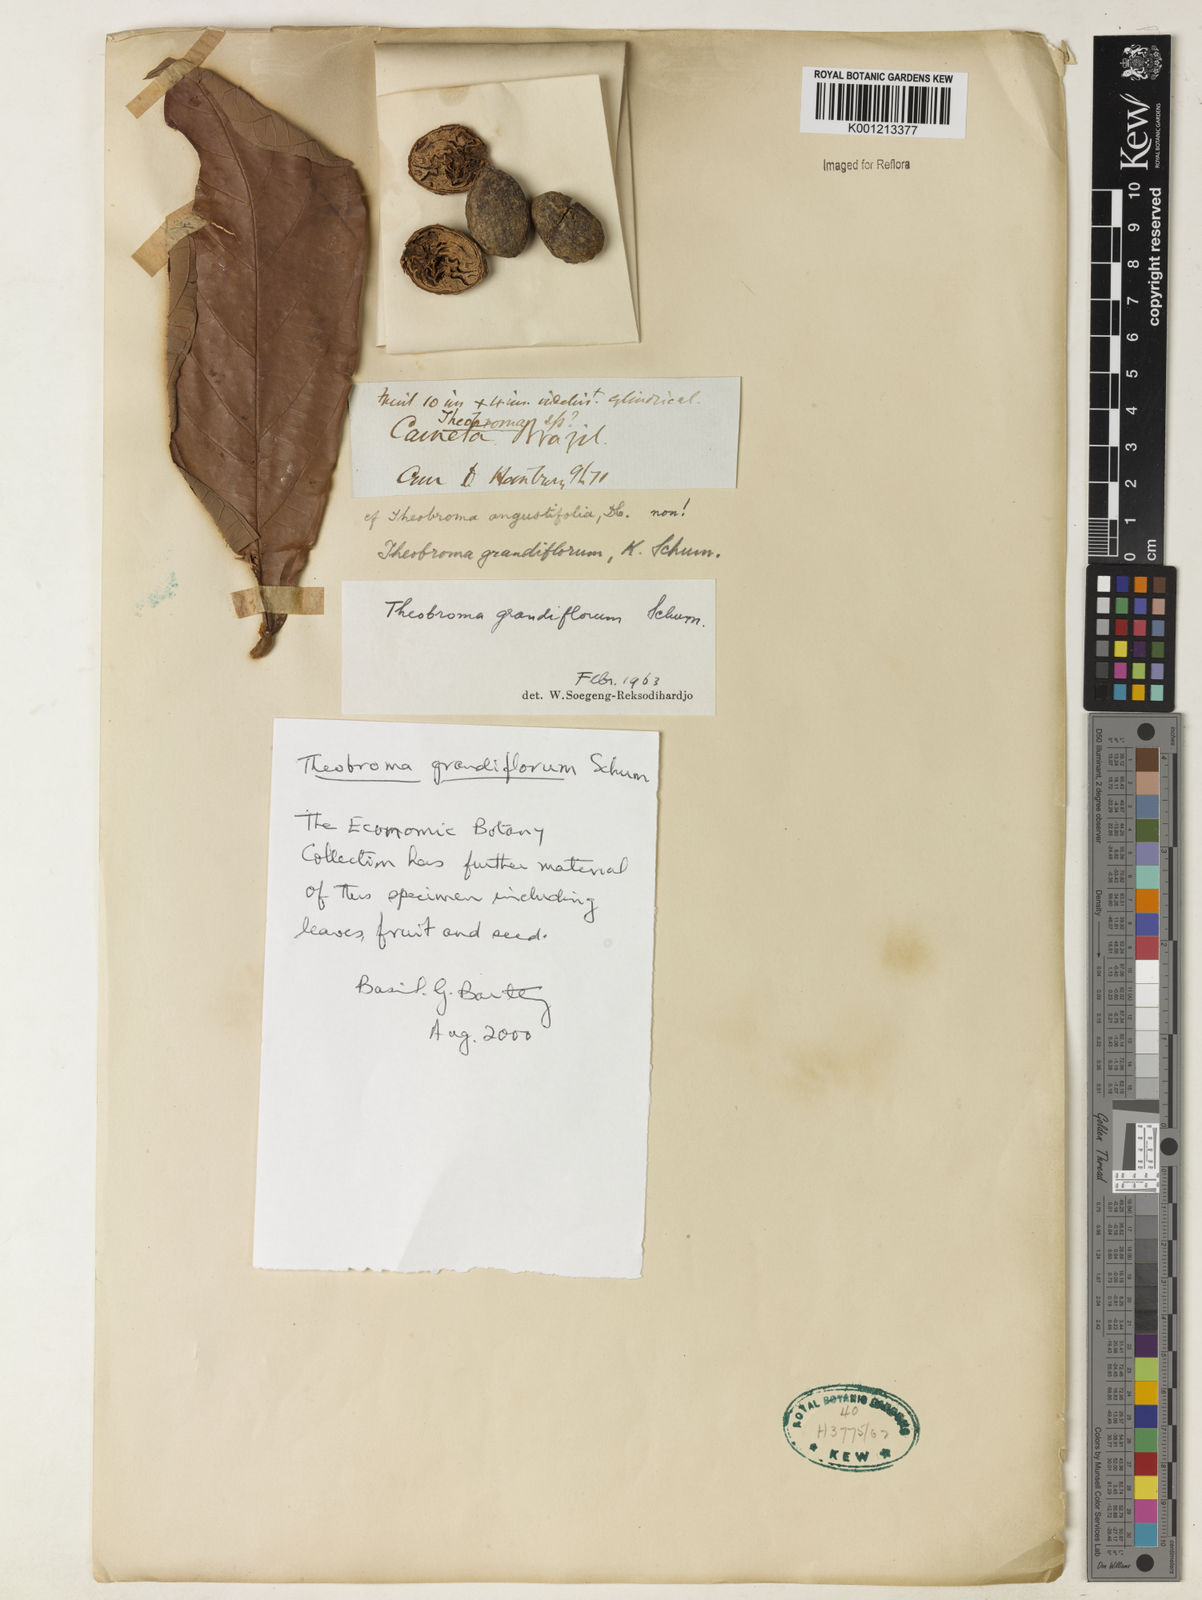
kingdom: Plantae
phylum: Tracheophyta
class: Magnoliopsida
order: Malvales
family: Malvaceae
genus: Theobroma
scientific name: Theobroma grandiflorum
